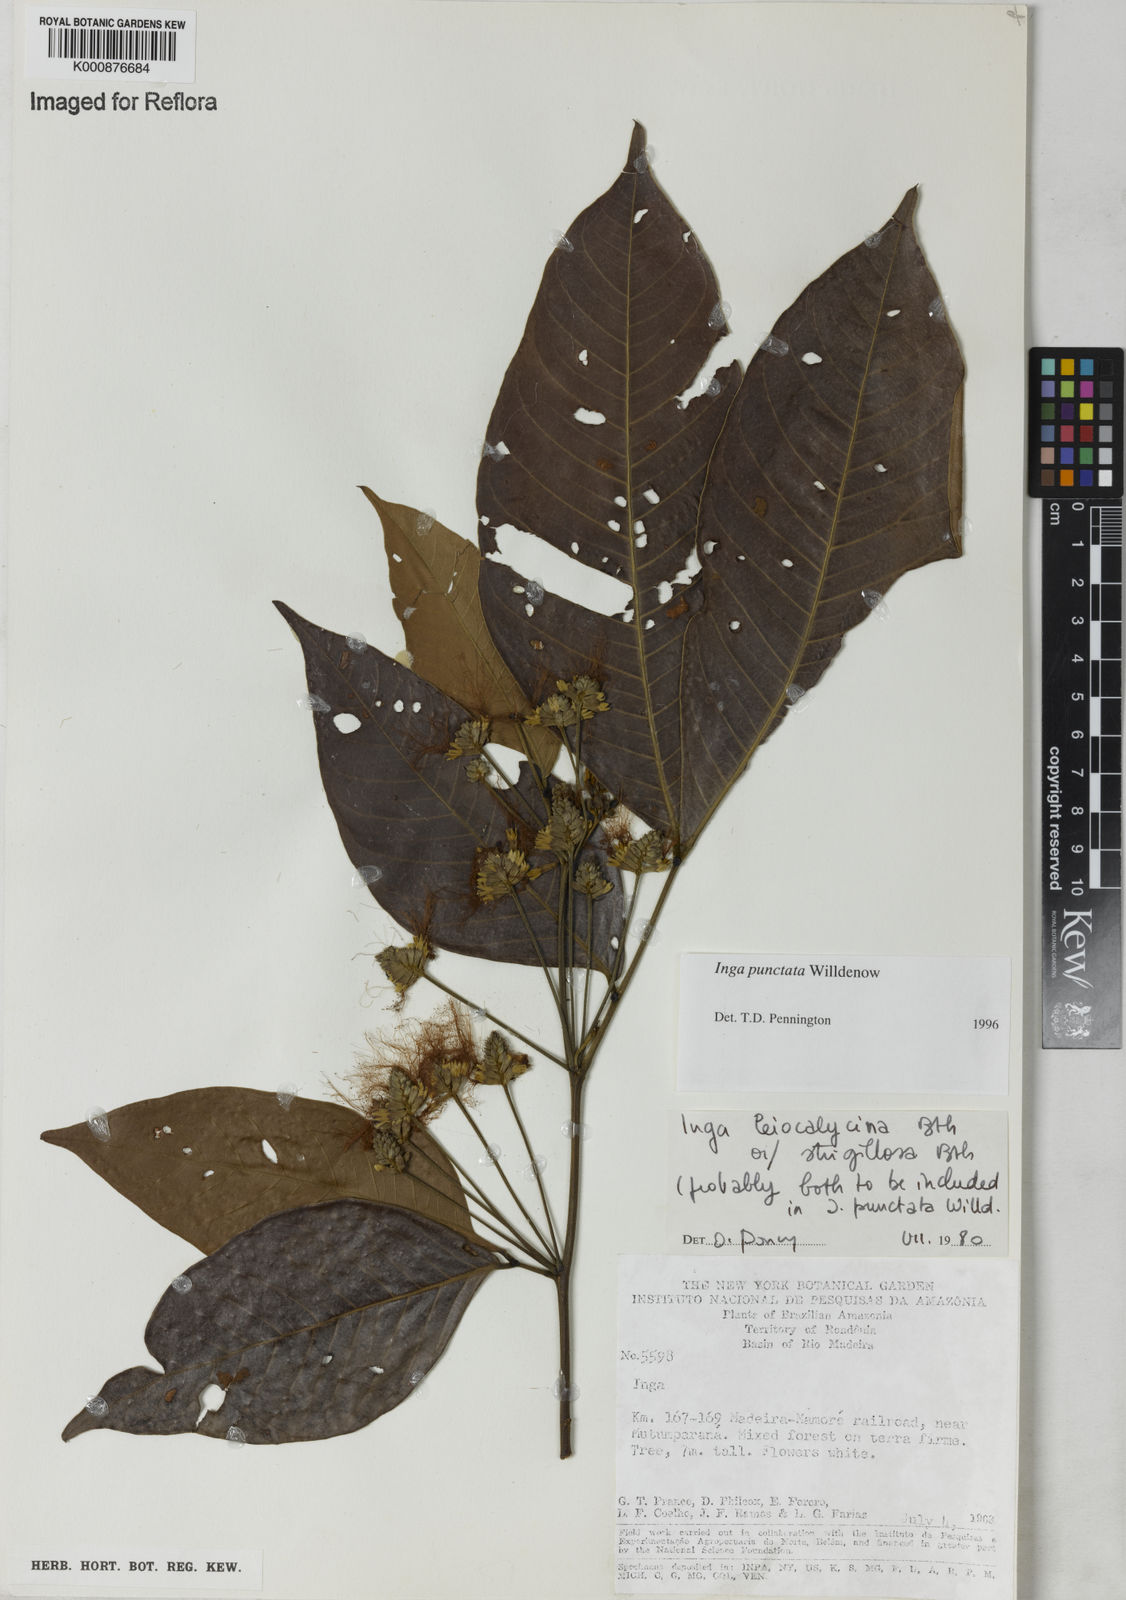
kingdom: Plantae
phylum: Tracheophyta
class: Magnoliopsida
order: Fabales
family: Fabaceae
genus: Inga
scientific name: Inga punctata
